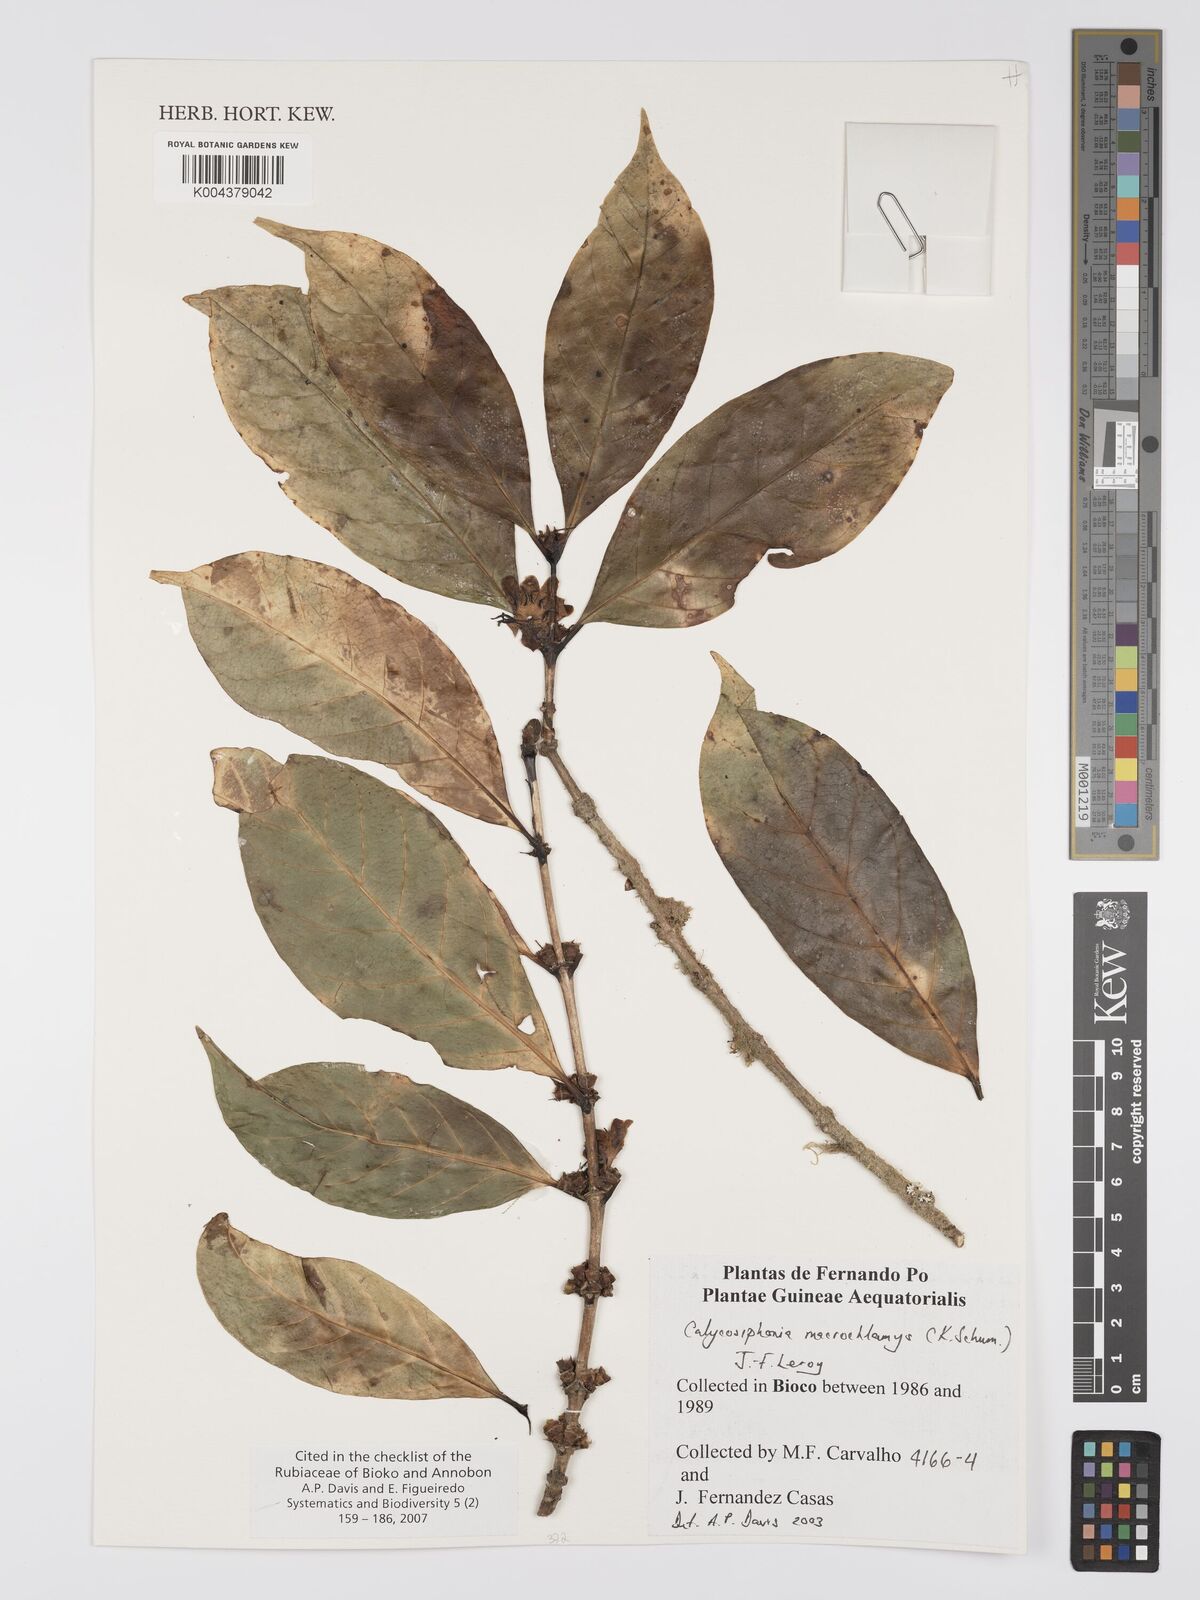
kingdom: Plantae
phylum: Tracheophyta
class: Magnoliopsida
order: Gentianales
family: Rubiaceae
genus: Calycosiphonia
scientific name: Calycosiphonia macrochlamys
